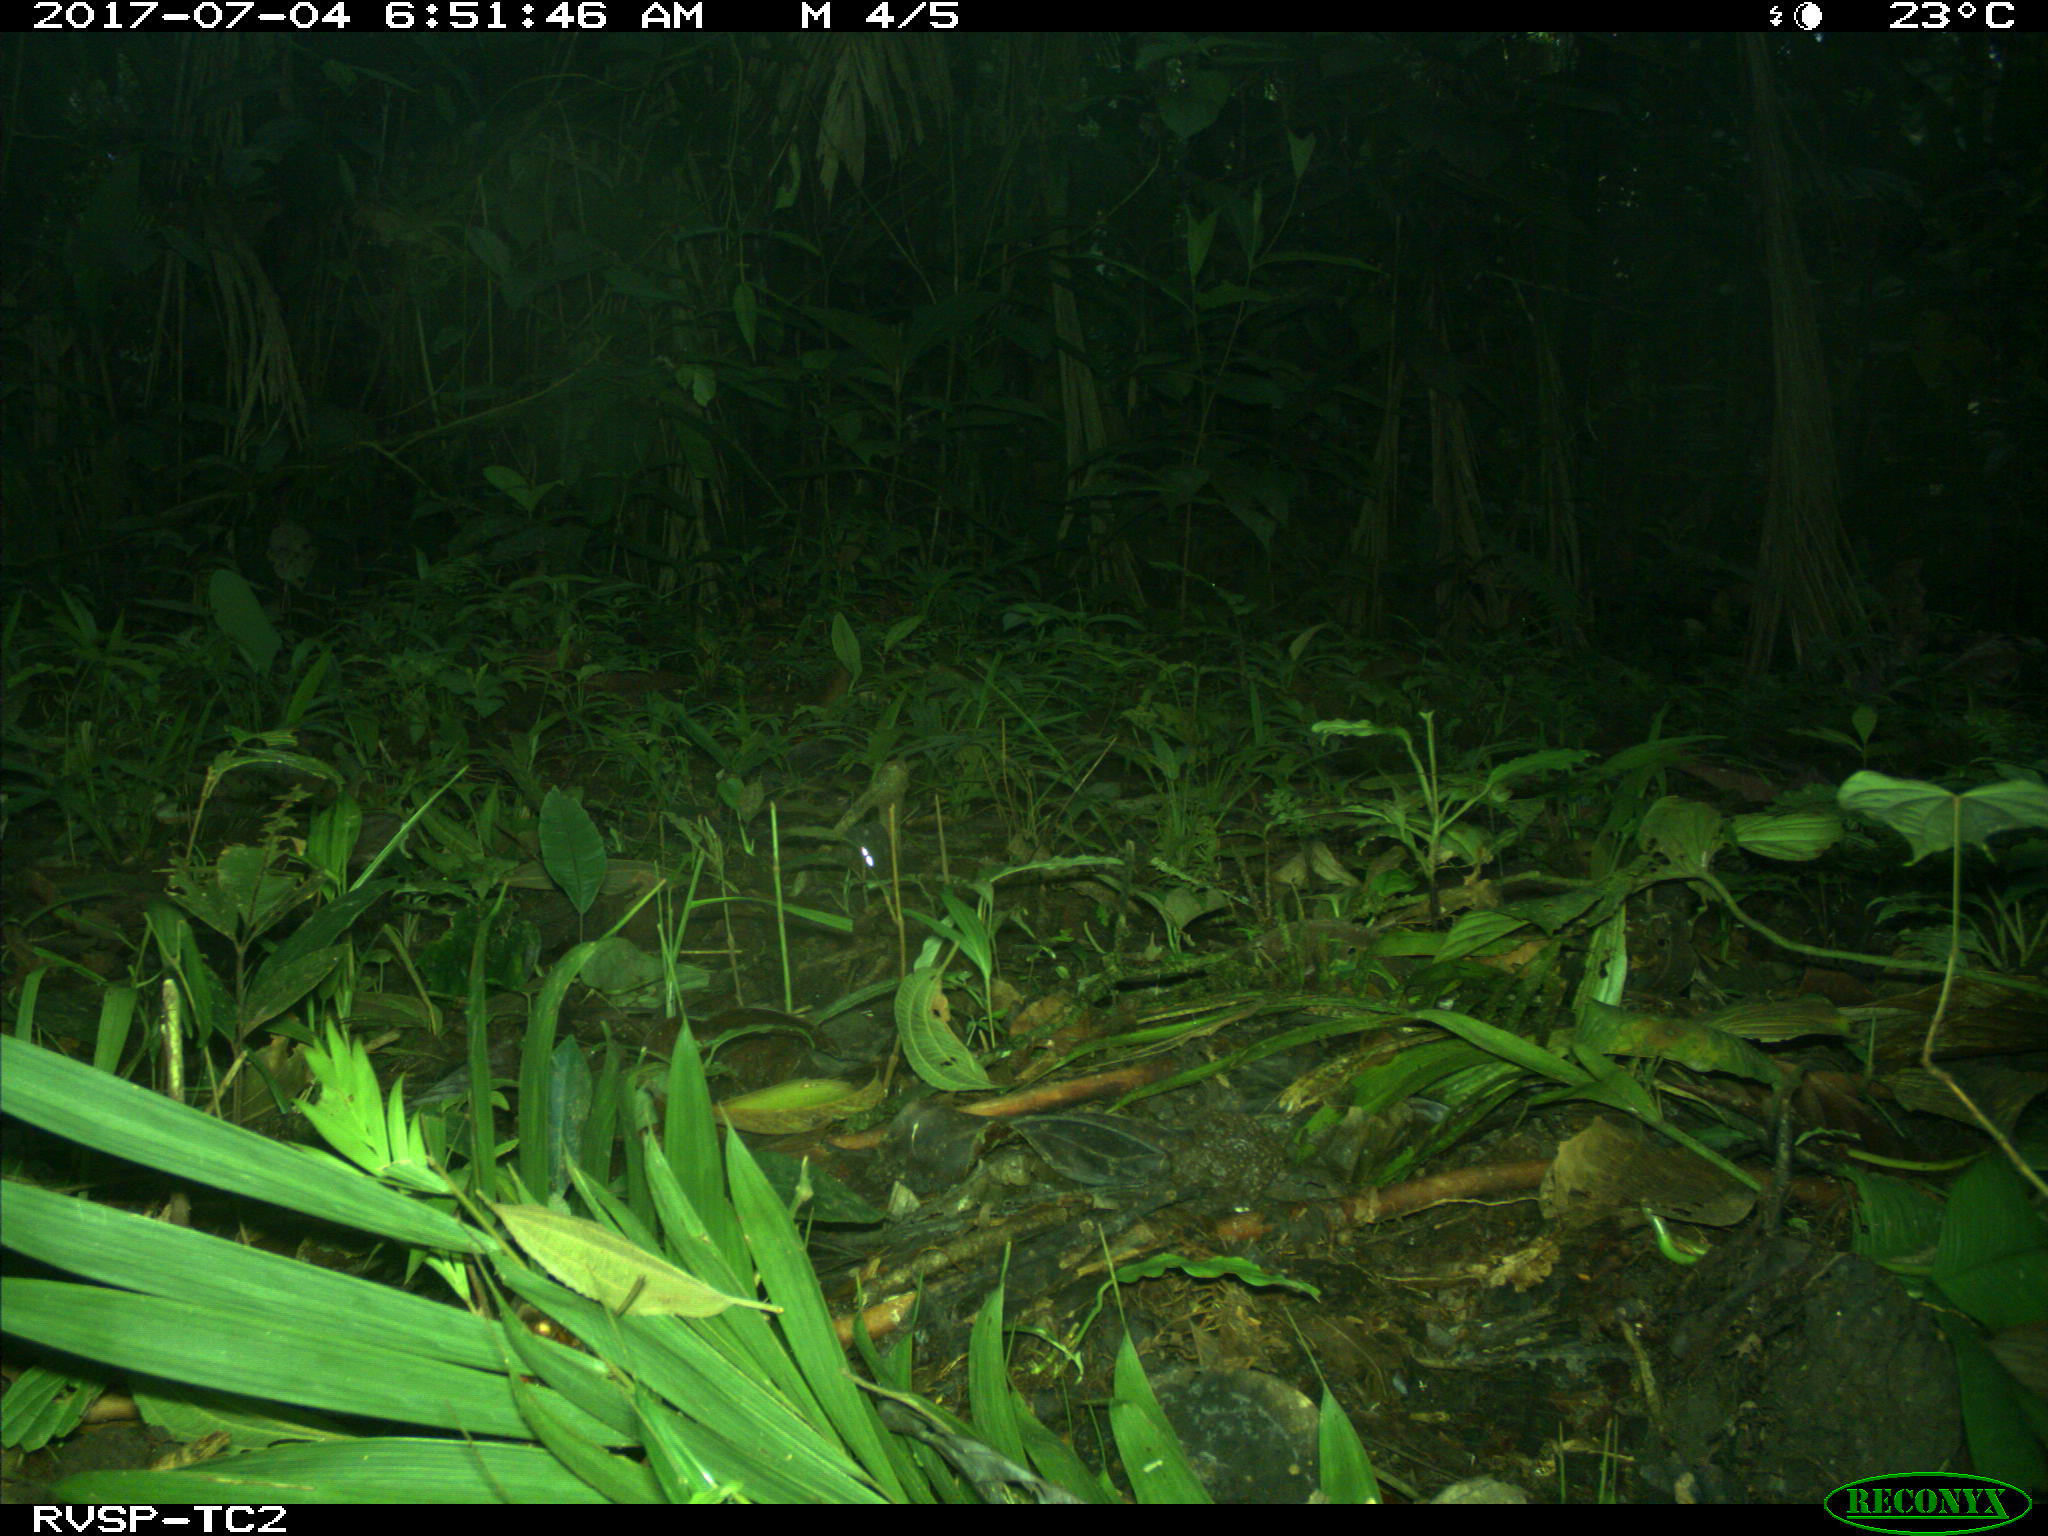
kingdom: Animalia
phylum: Chordata
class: Mammalia
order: Rodentia
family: Dasyproctidae
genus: Dasyprocta
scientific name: Dasyprocta punctata
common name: Central american agouti
